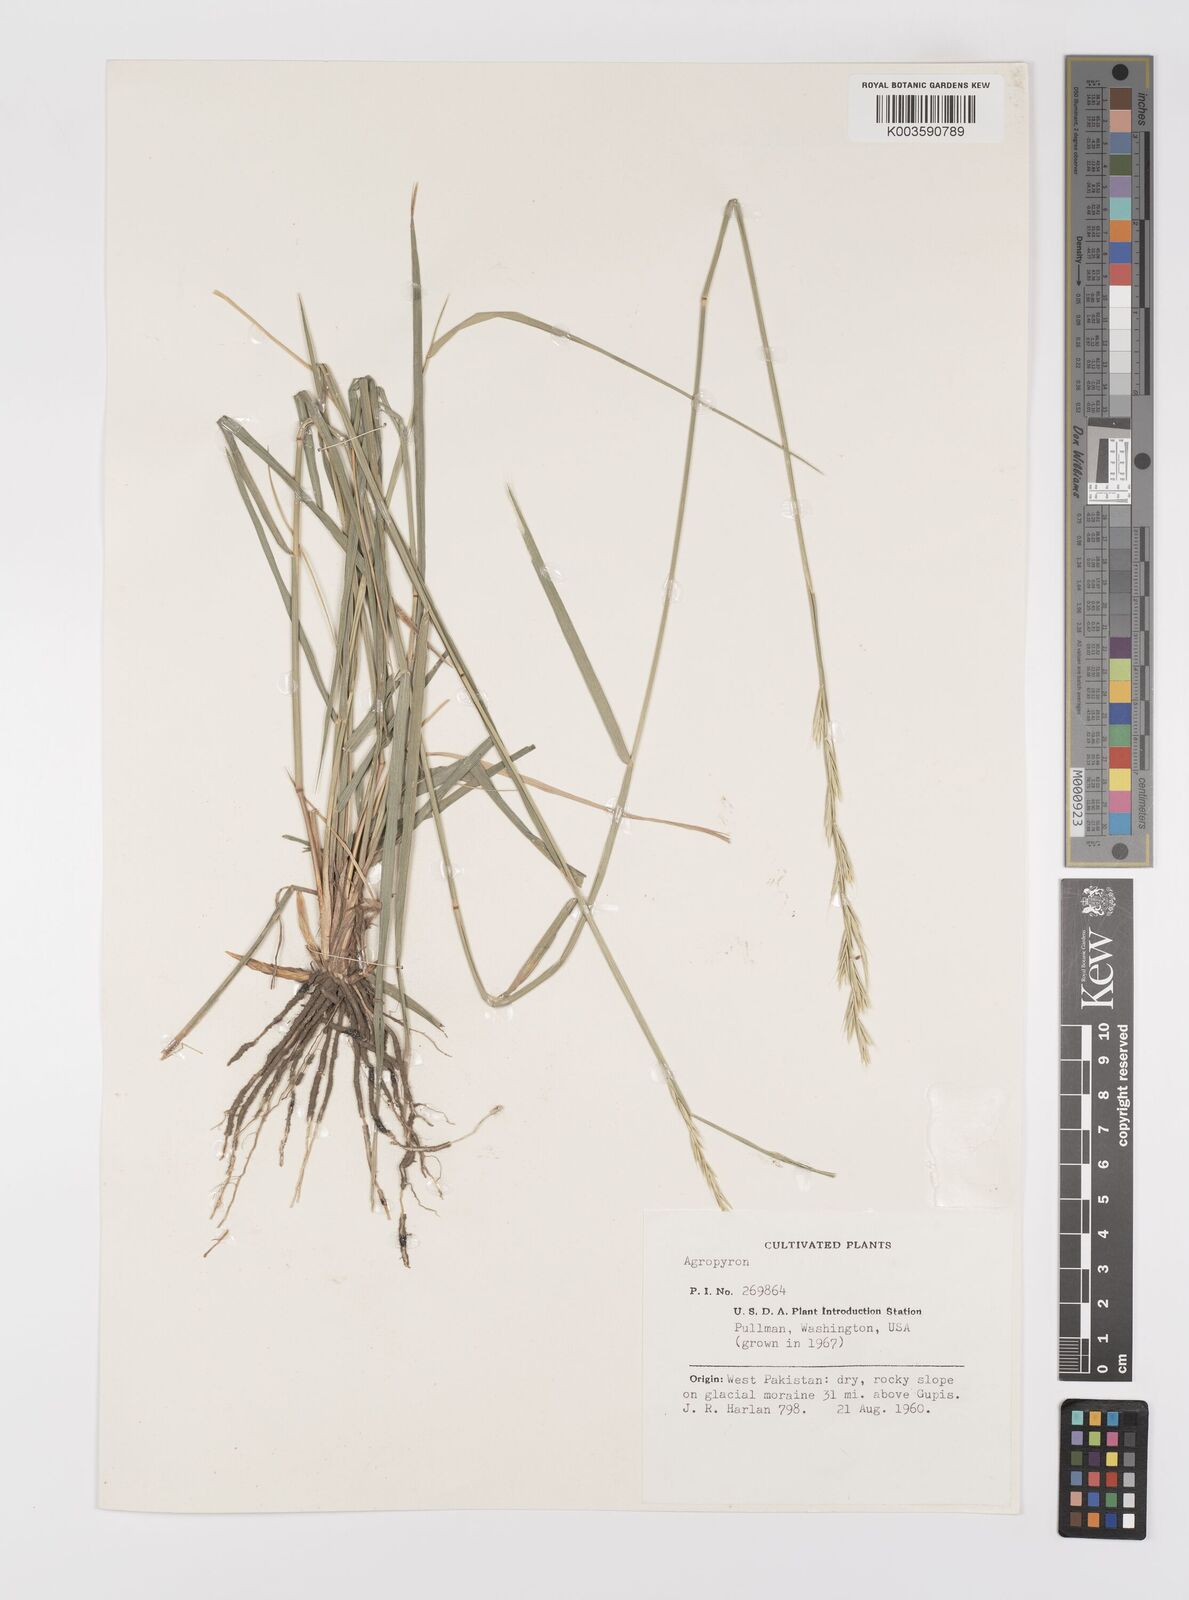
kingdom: Plantae
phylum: Tracheophyta
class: Liliopsida
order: Poales
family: Poaceae
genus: Elymus
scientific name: Elymus
